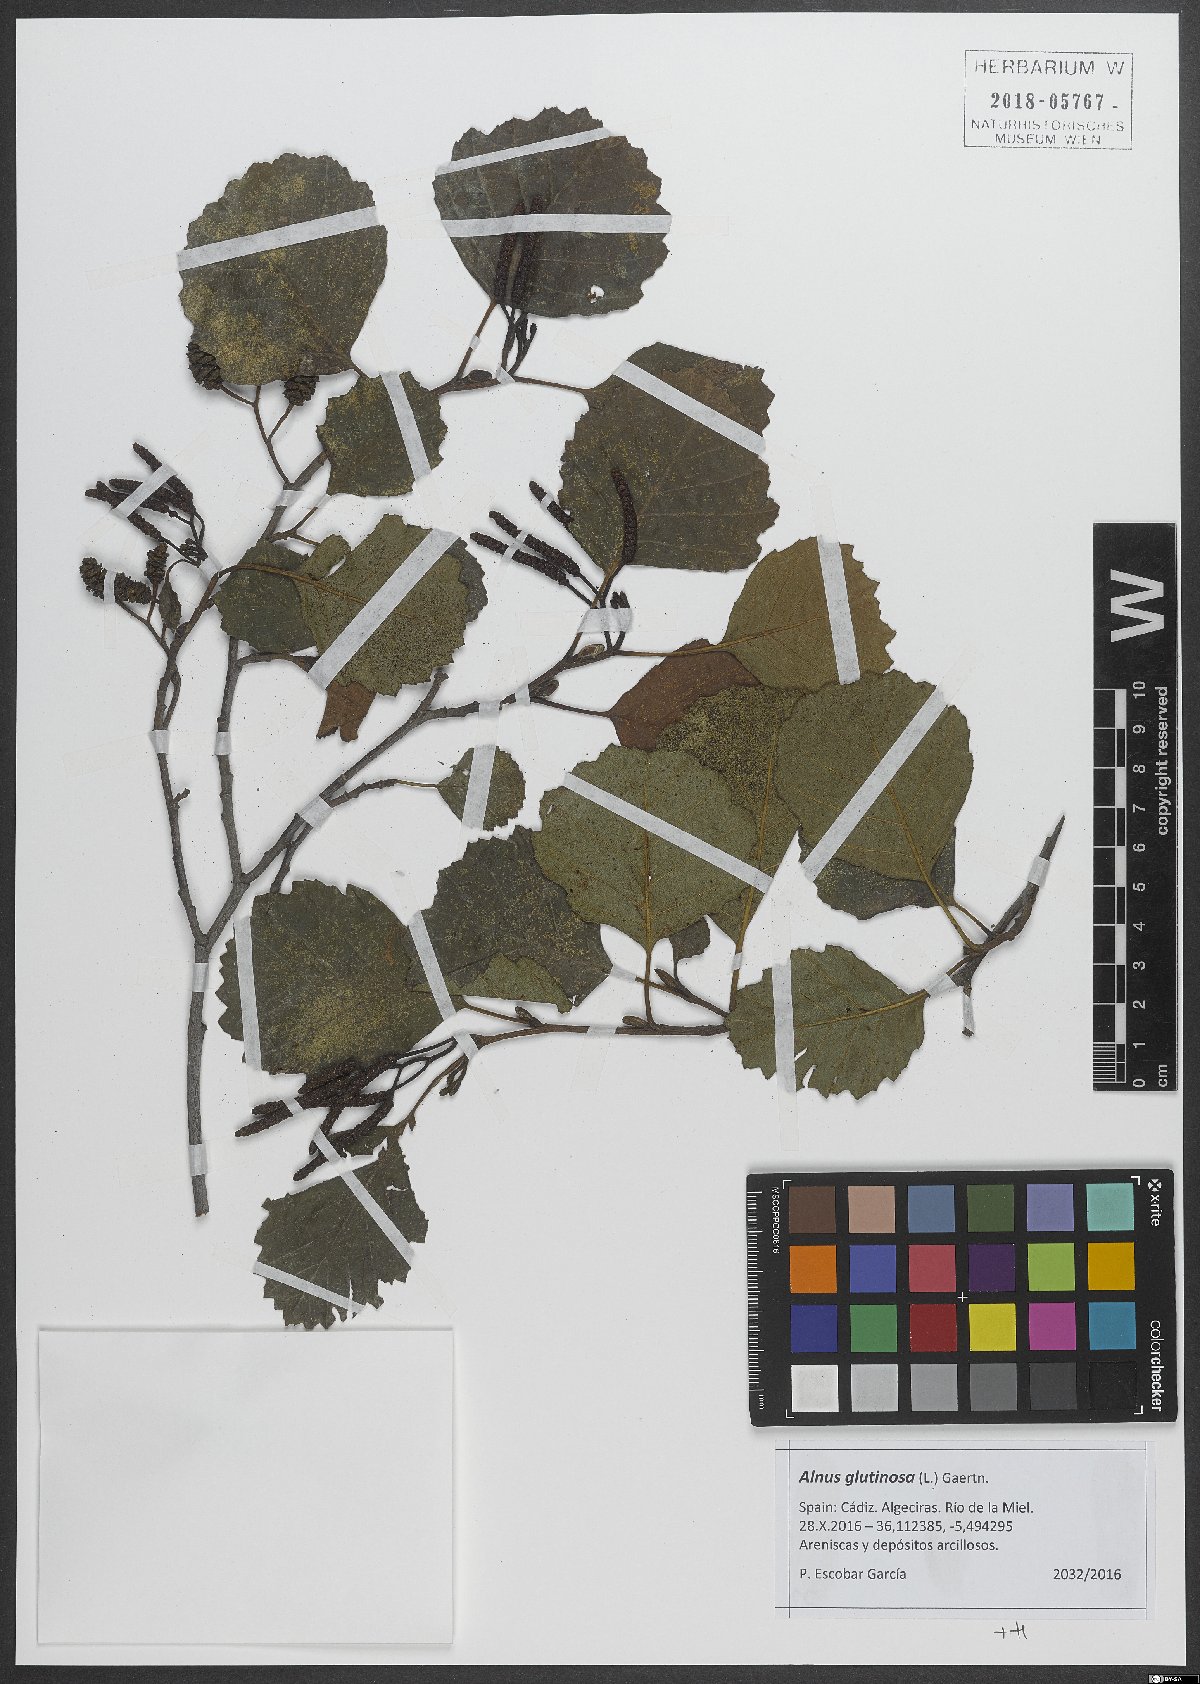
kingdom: Plantae
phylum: Tracheophyta
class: Magnoliopsida
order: Fagales
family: Betulaceae
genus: Alnus
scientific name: Alnus glutinosa
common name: Black alder
